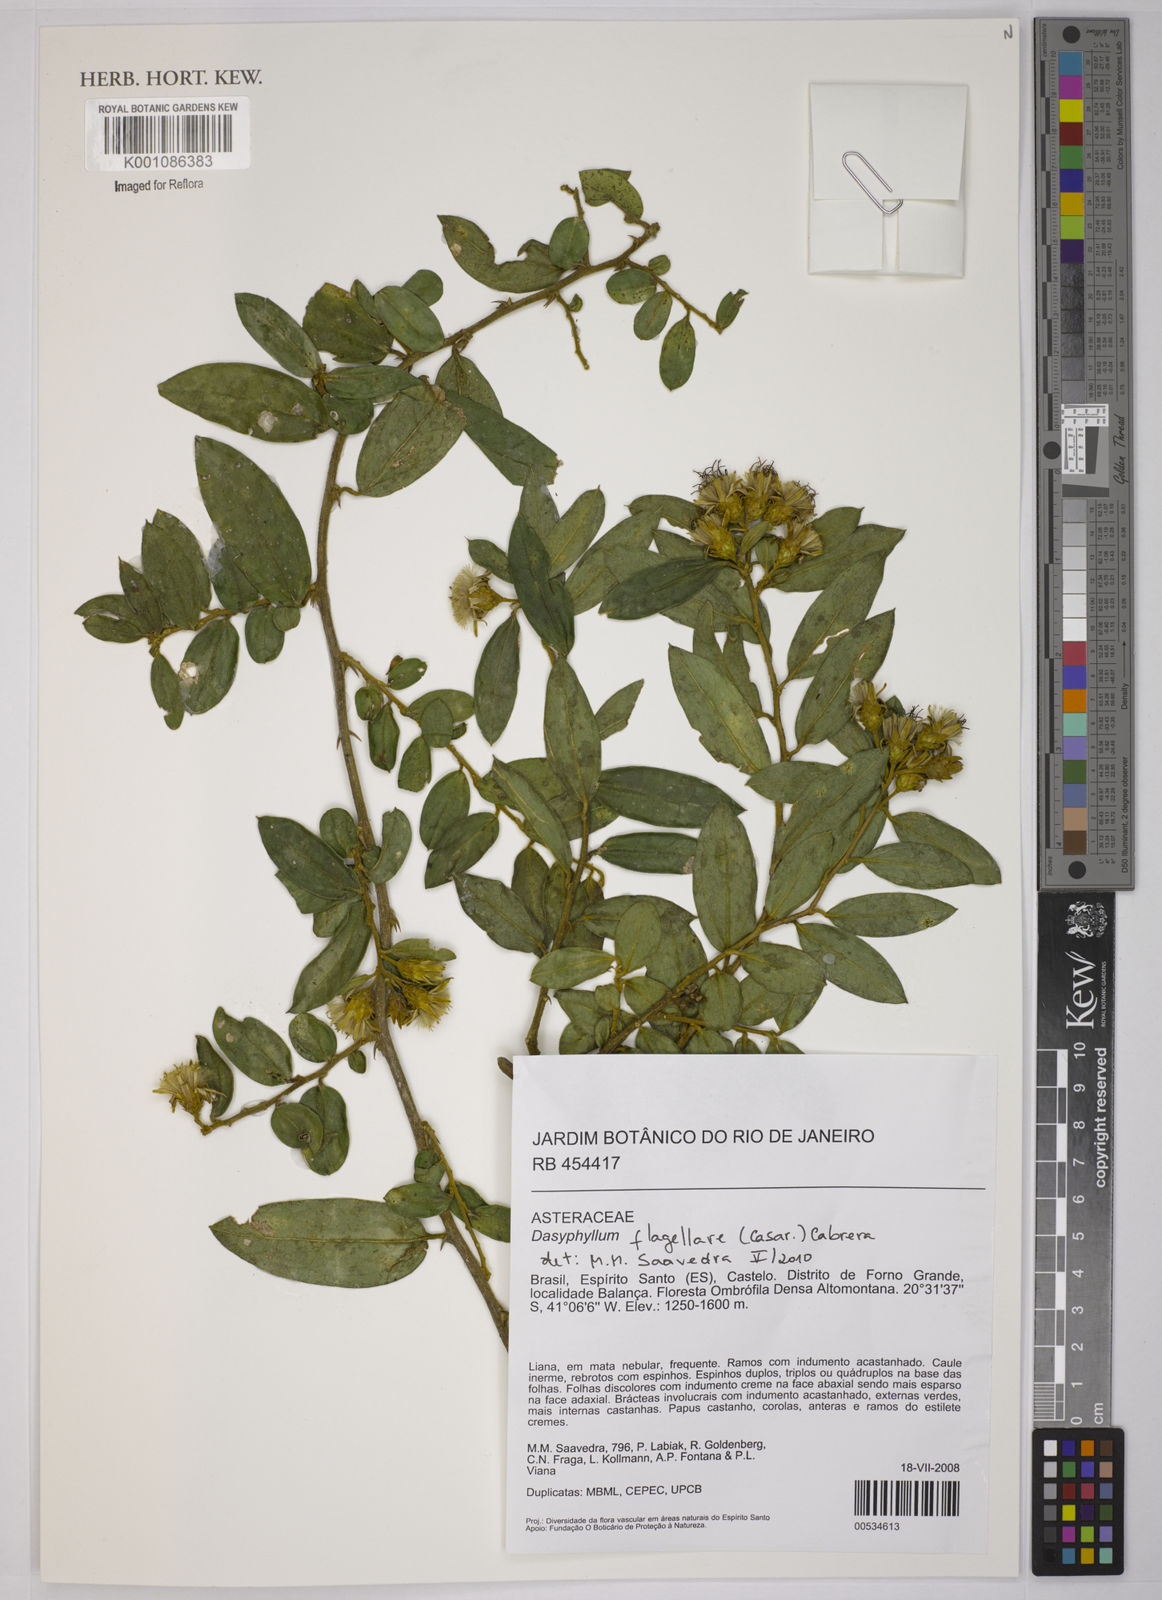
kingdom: Plantae
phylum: Tracheophyta
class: Magnoliopsida
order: Asterales
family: Asteraceae
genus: Dasyphyllum
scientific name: Dasyphyllum flagellare
